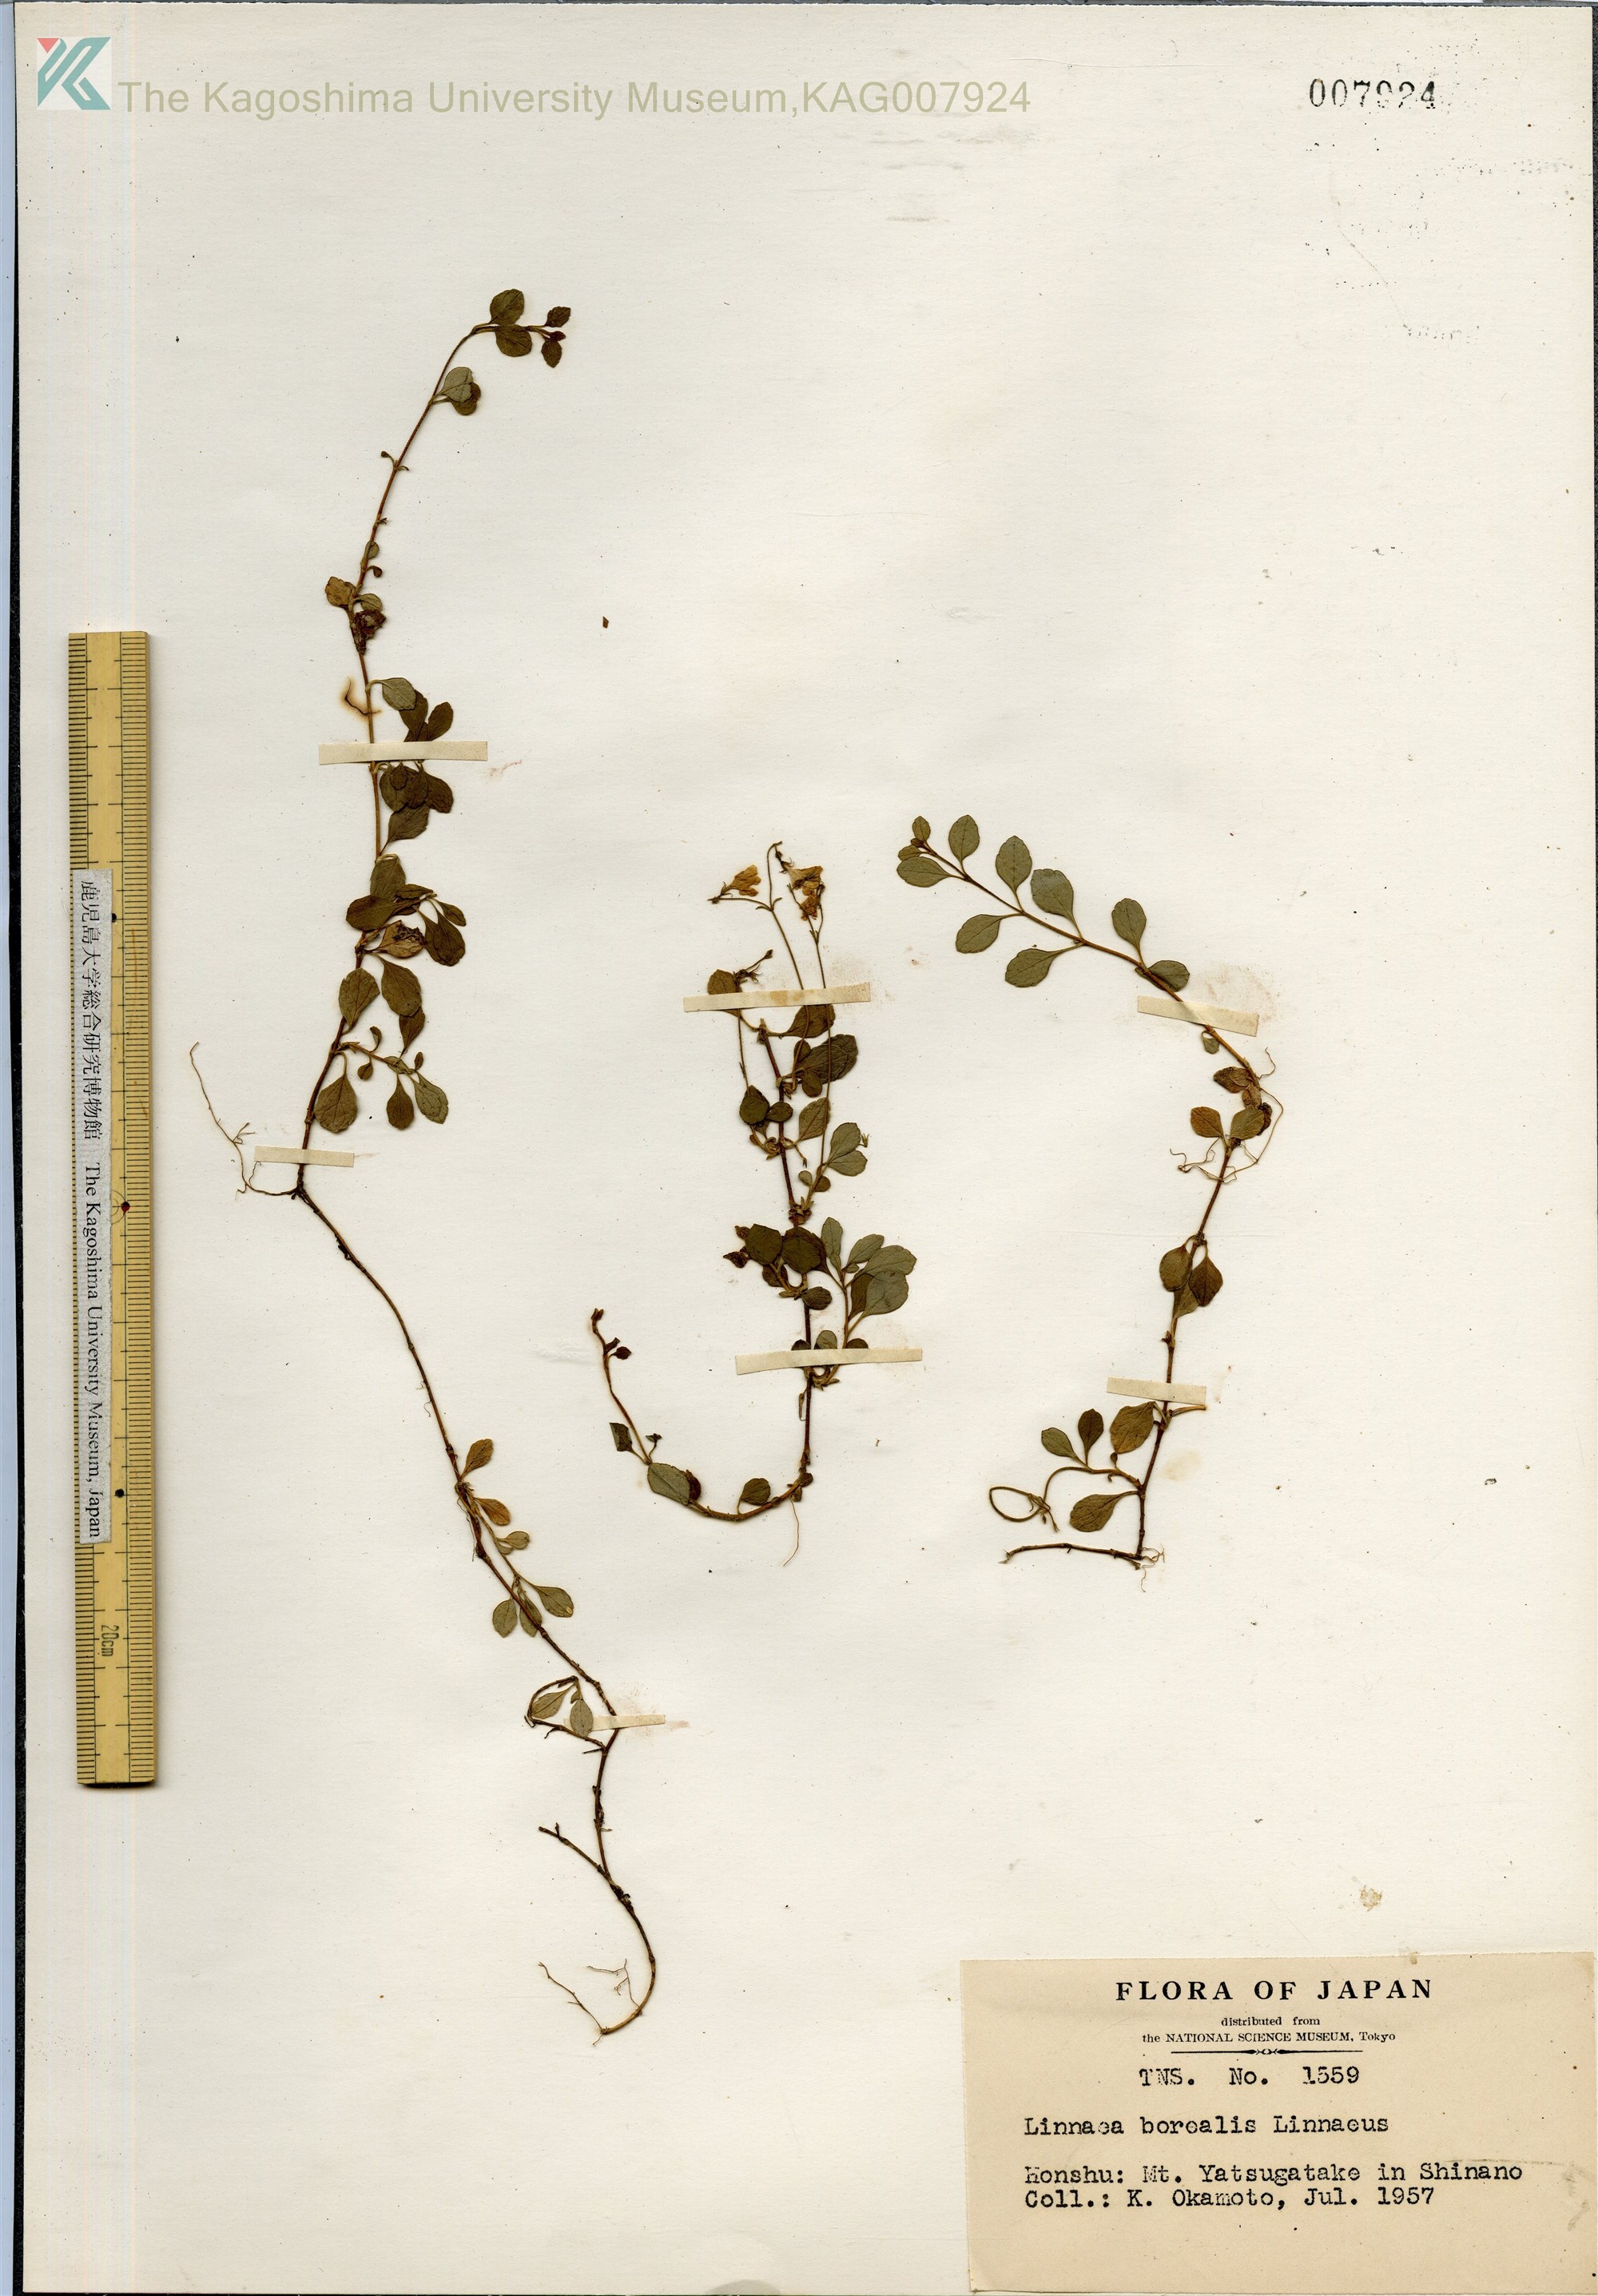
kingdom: Plantae
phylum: Tracheophyta
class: Magnoliopsida
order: Dipsacales
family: Caprifoliaceae
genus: Linnaea
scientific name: Linnaea borealis
